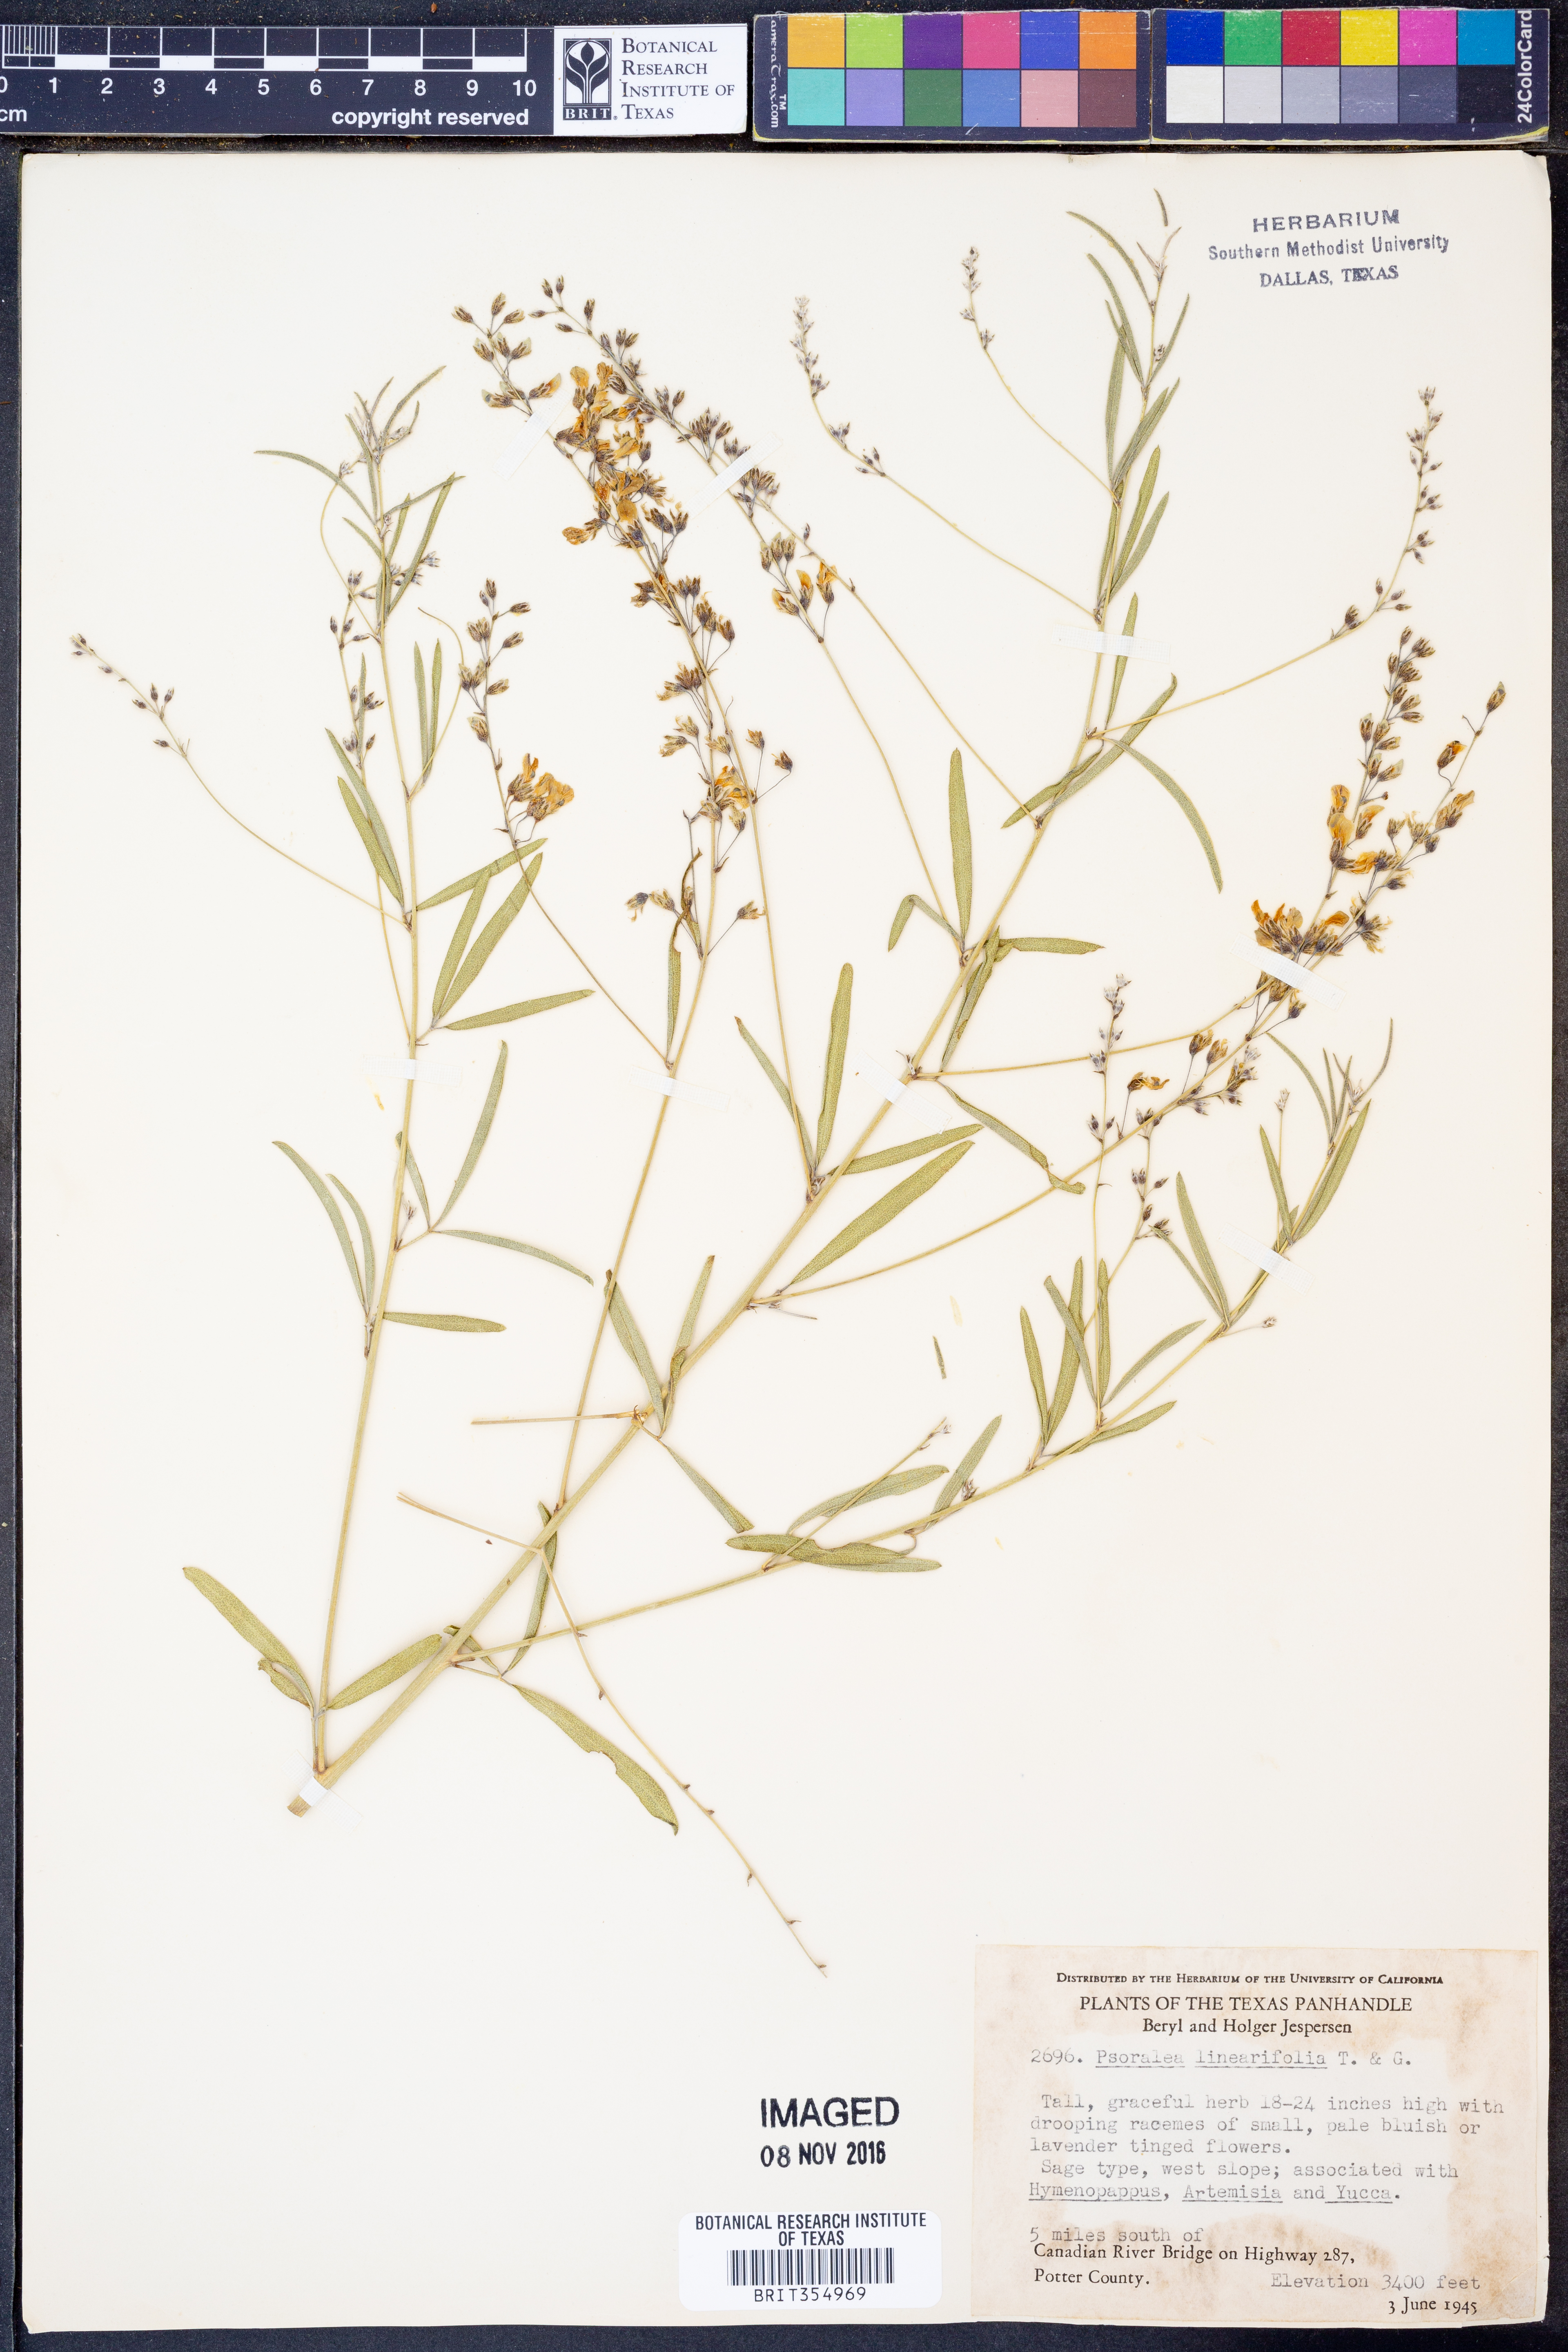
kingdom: Plantae
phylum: Tracheophyta
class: Magnoliopsida
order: Fabales
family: Fabaceae
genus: Pediomelum
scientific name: Pediomelum linearifolium
